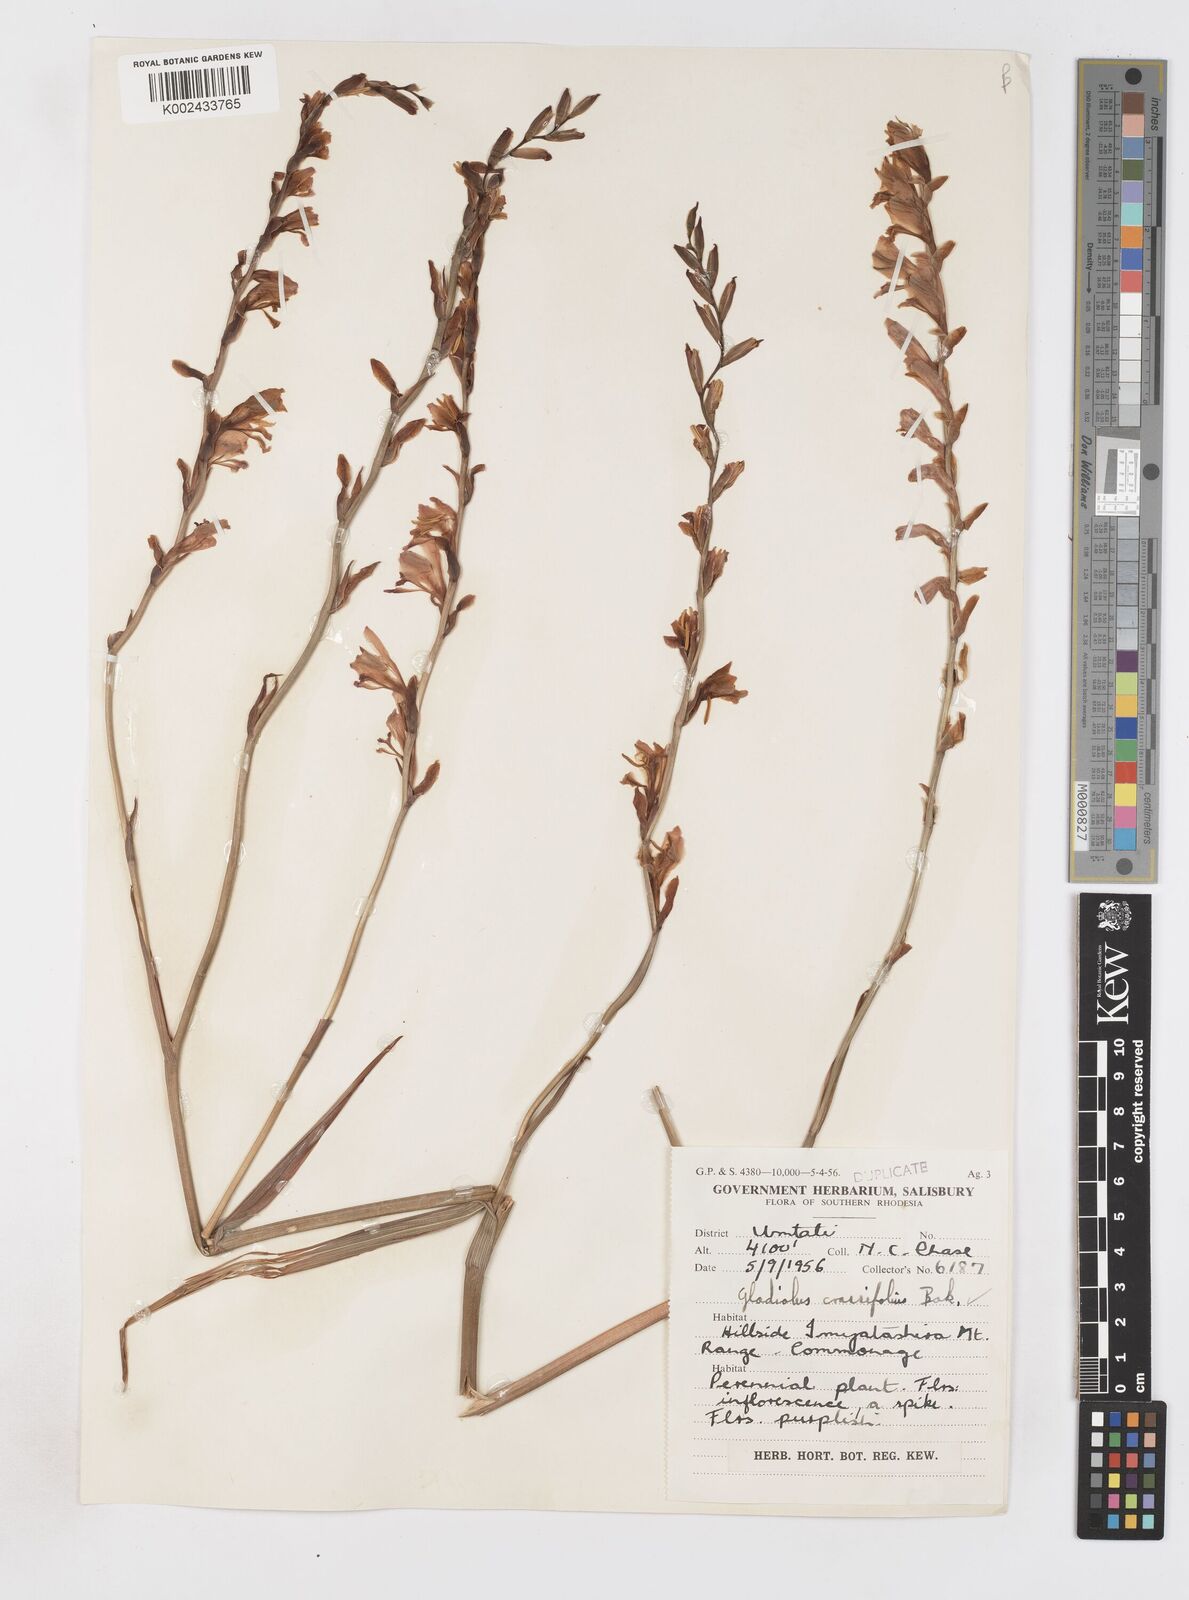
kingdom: Plantae
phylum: Tracheophyta
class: Liliopsida
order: Asparagales
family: Iridaceae
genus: Gladiolus
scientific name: Gladiolus crassifolius
